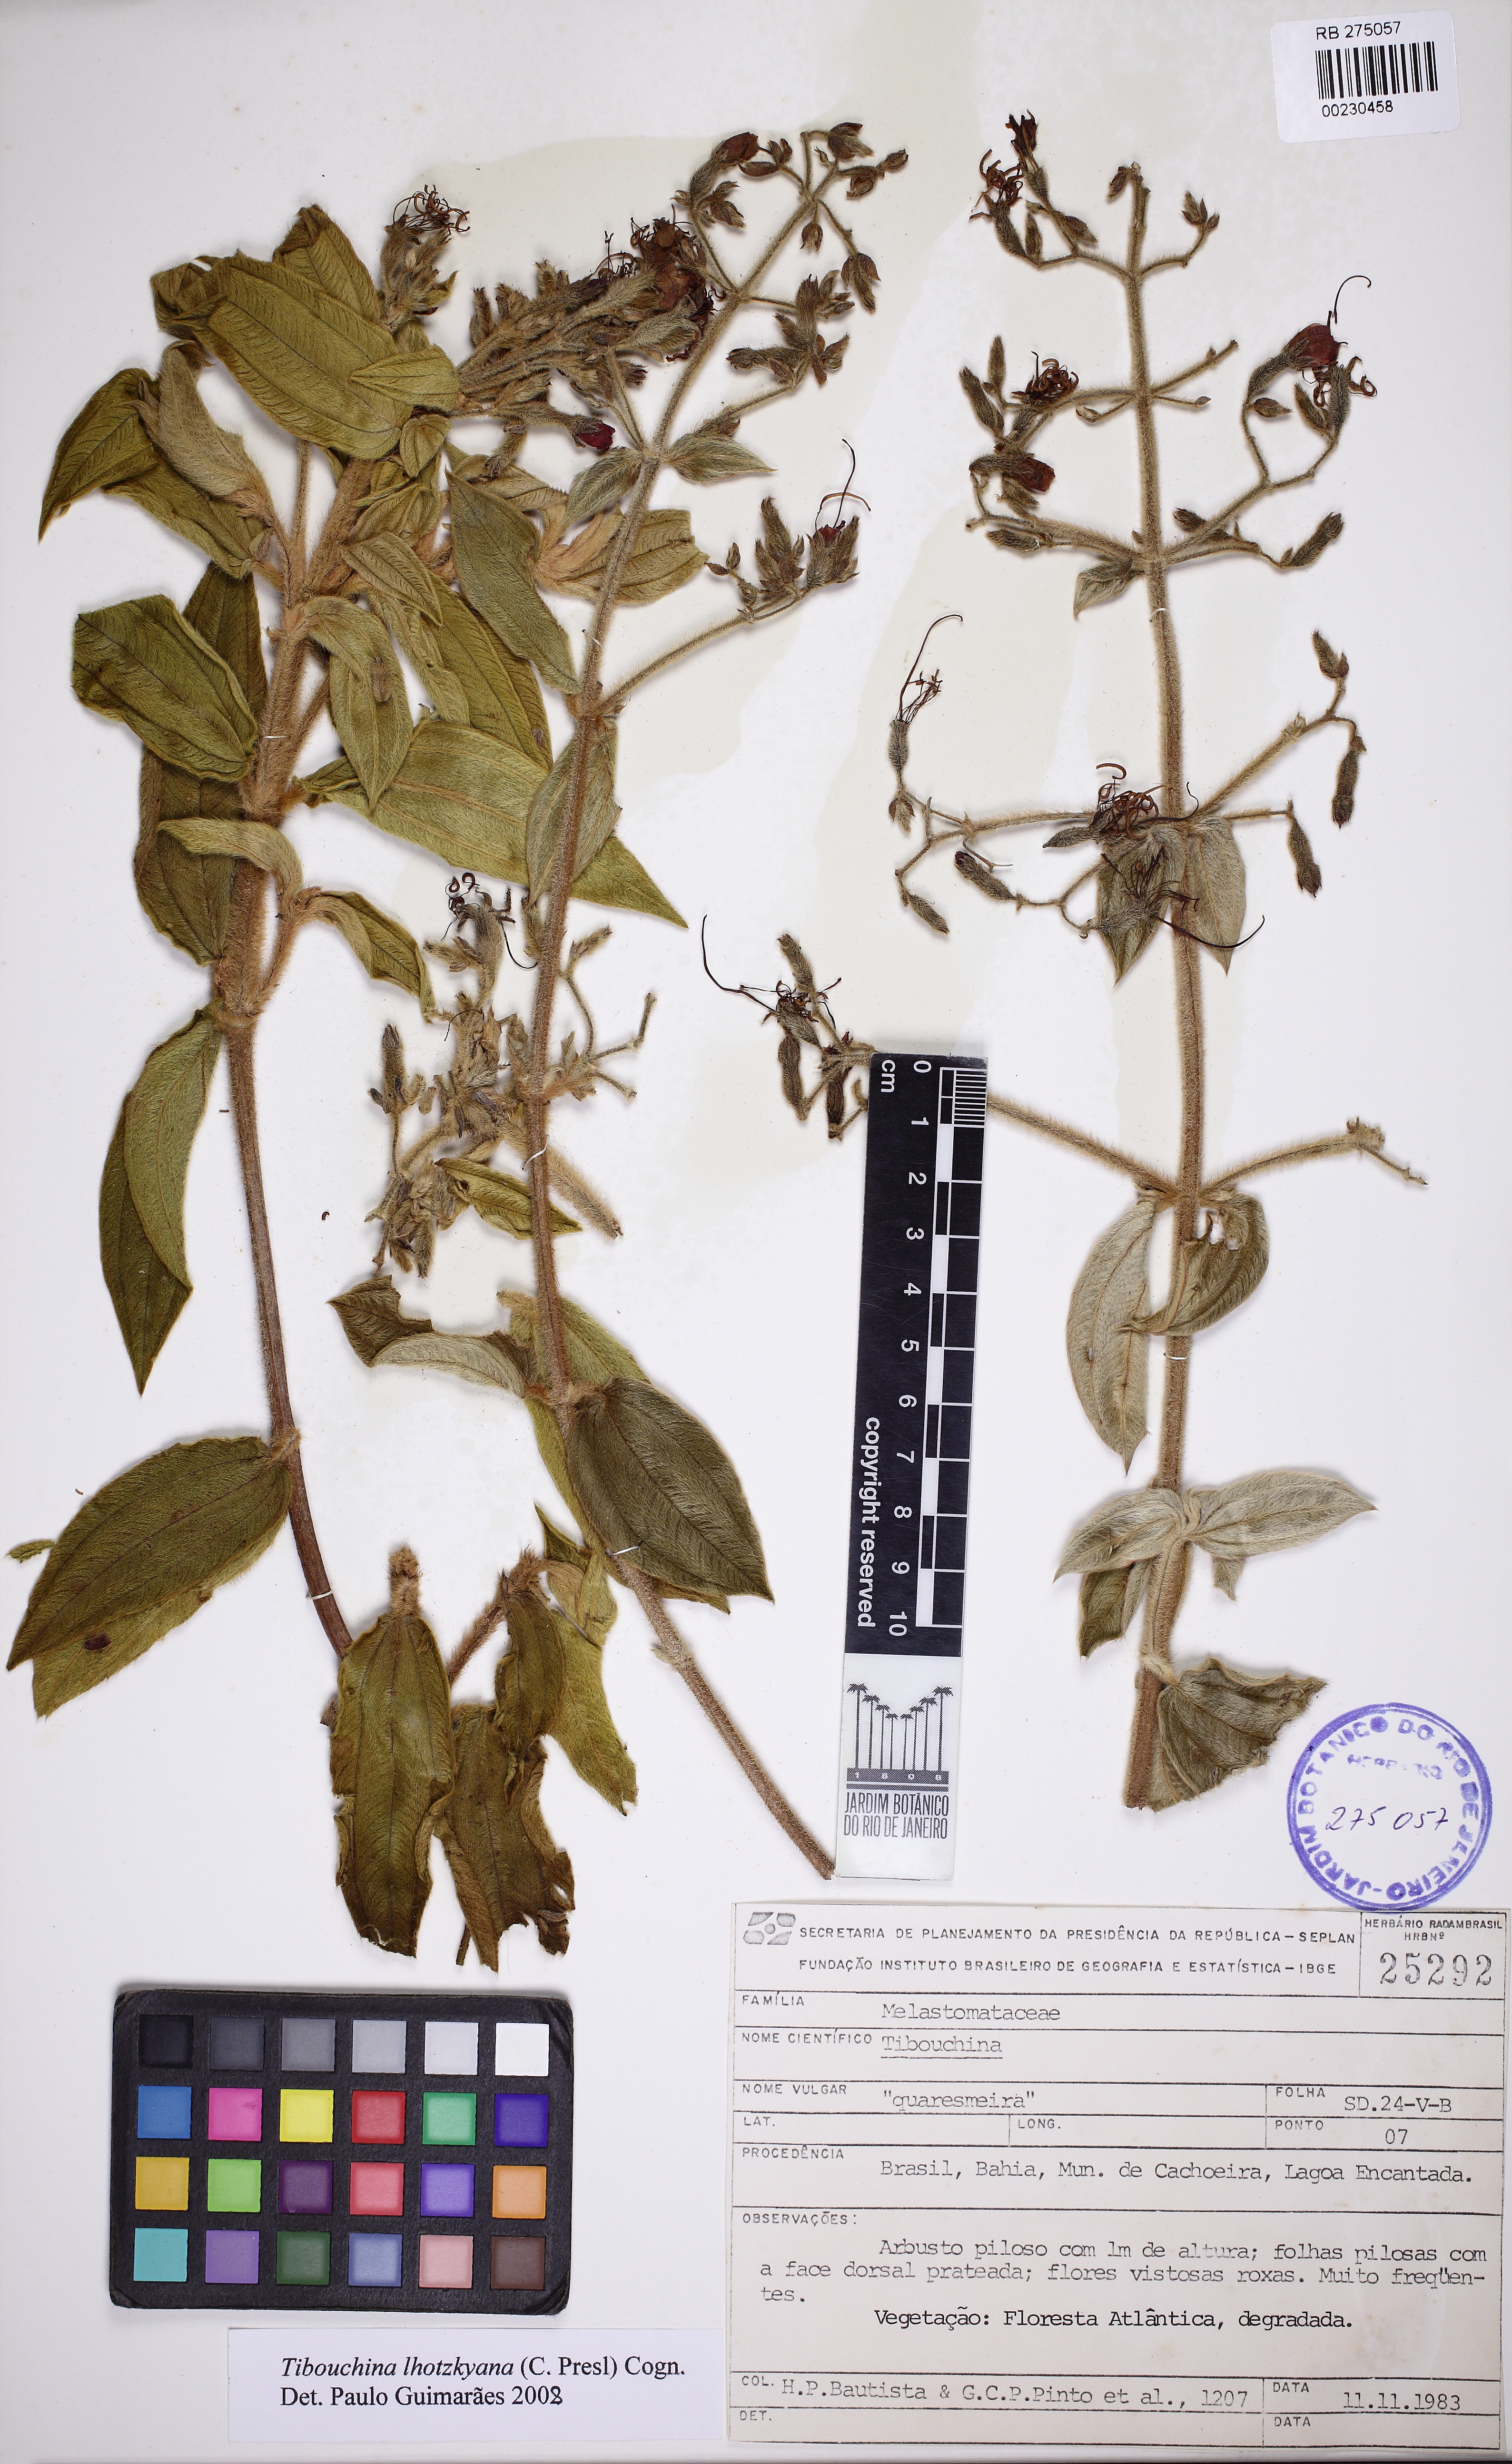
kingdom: Plantae
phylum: Tracheophyta
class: Magnoliopsida
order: Myrtales
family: Melastomataceae
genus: Chaetogastra
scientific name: Chaetogastra lhotskyana
